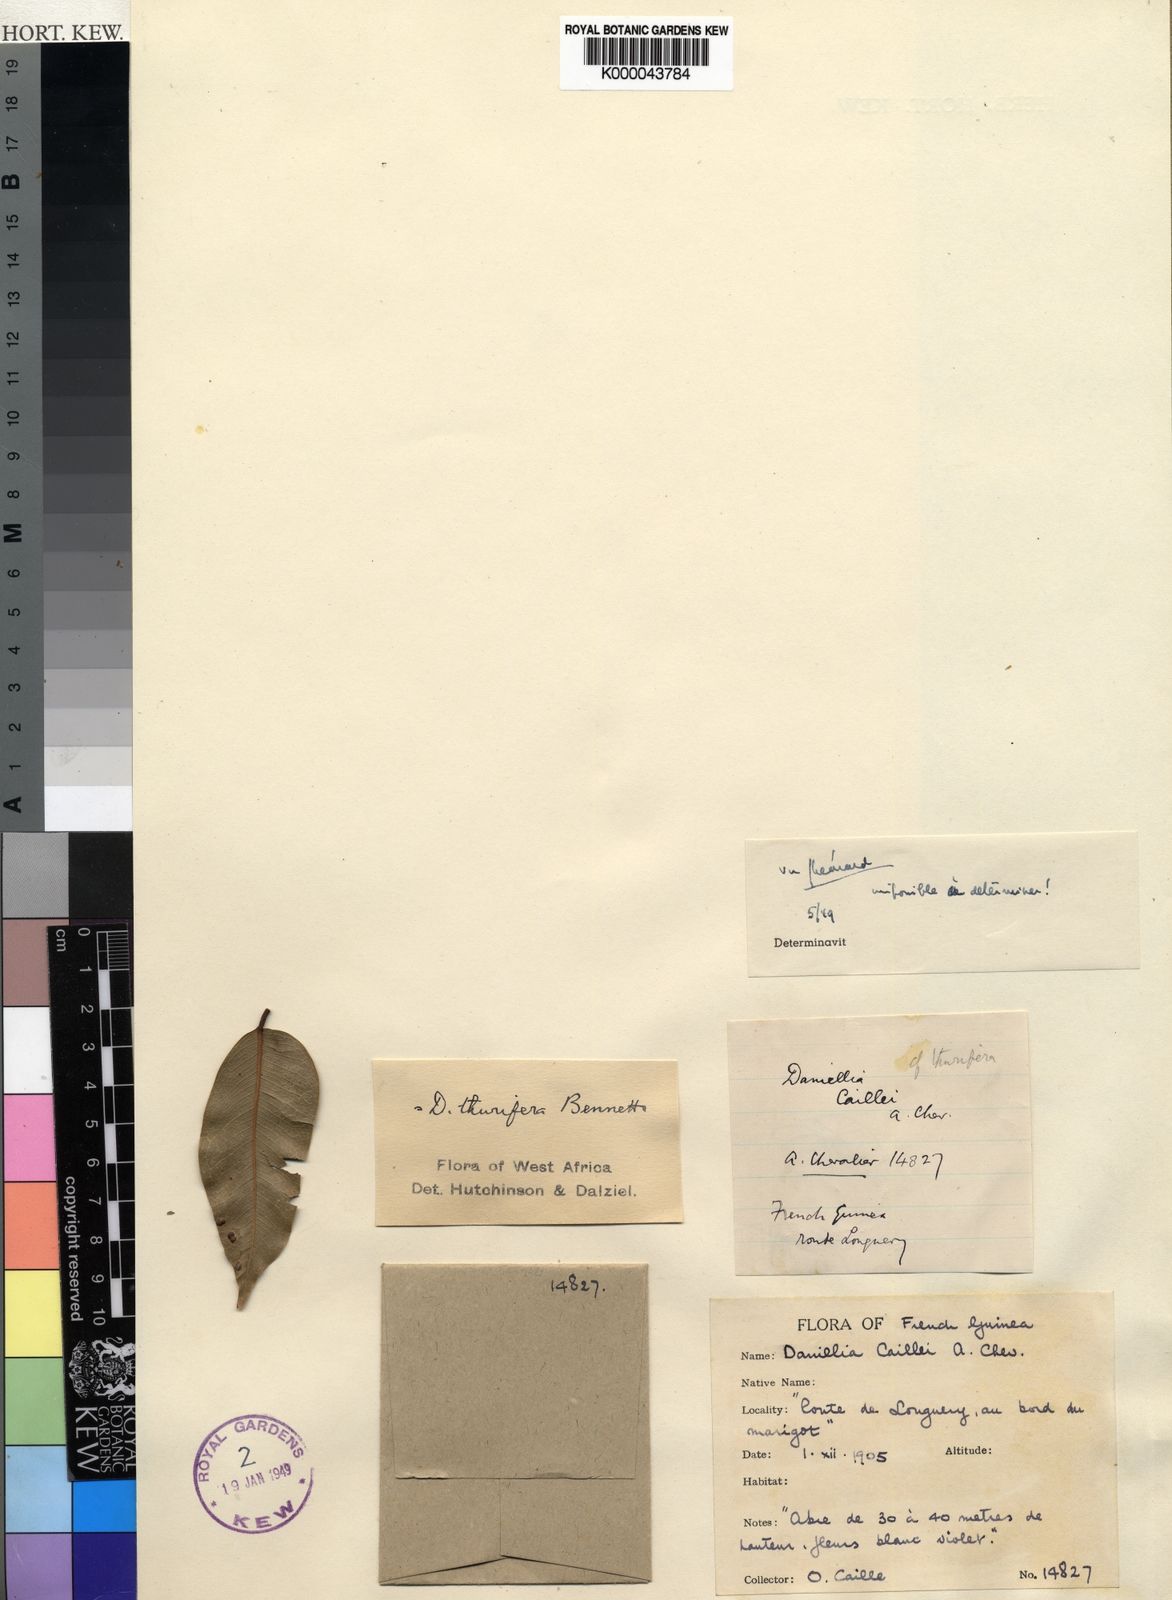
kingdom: Plantae
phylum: Tracheophyta
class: Magnoliopsida
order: Fabales
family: Fabaceae
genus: Daniellia
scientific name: Daniellia thurifera
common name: Sudan copal
